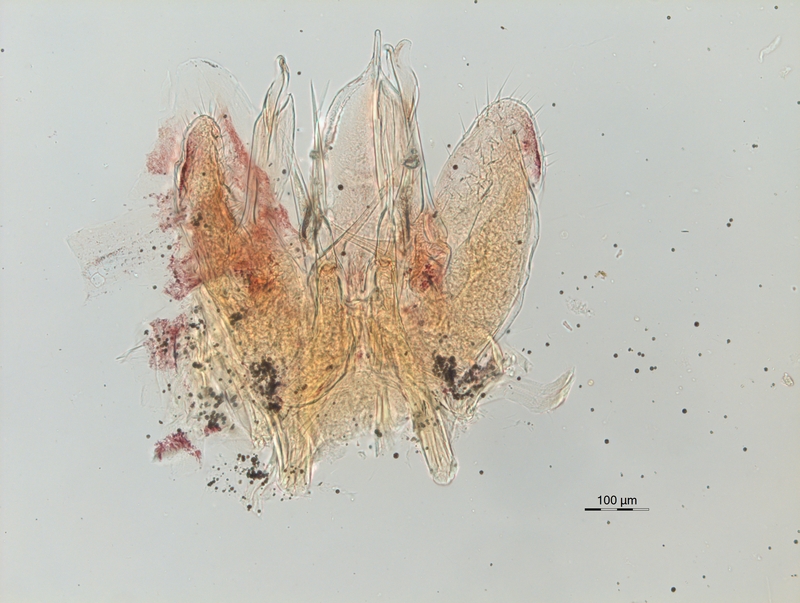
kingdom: Animalia
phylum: Arthropoda
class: Diplopoda
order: Chordeumatida
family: Chordeumatidae
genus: Melogona
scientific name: Melogona voigtii
